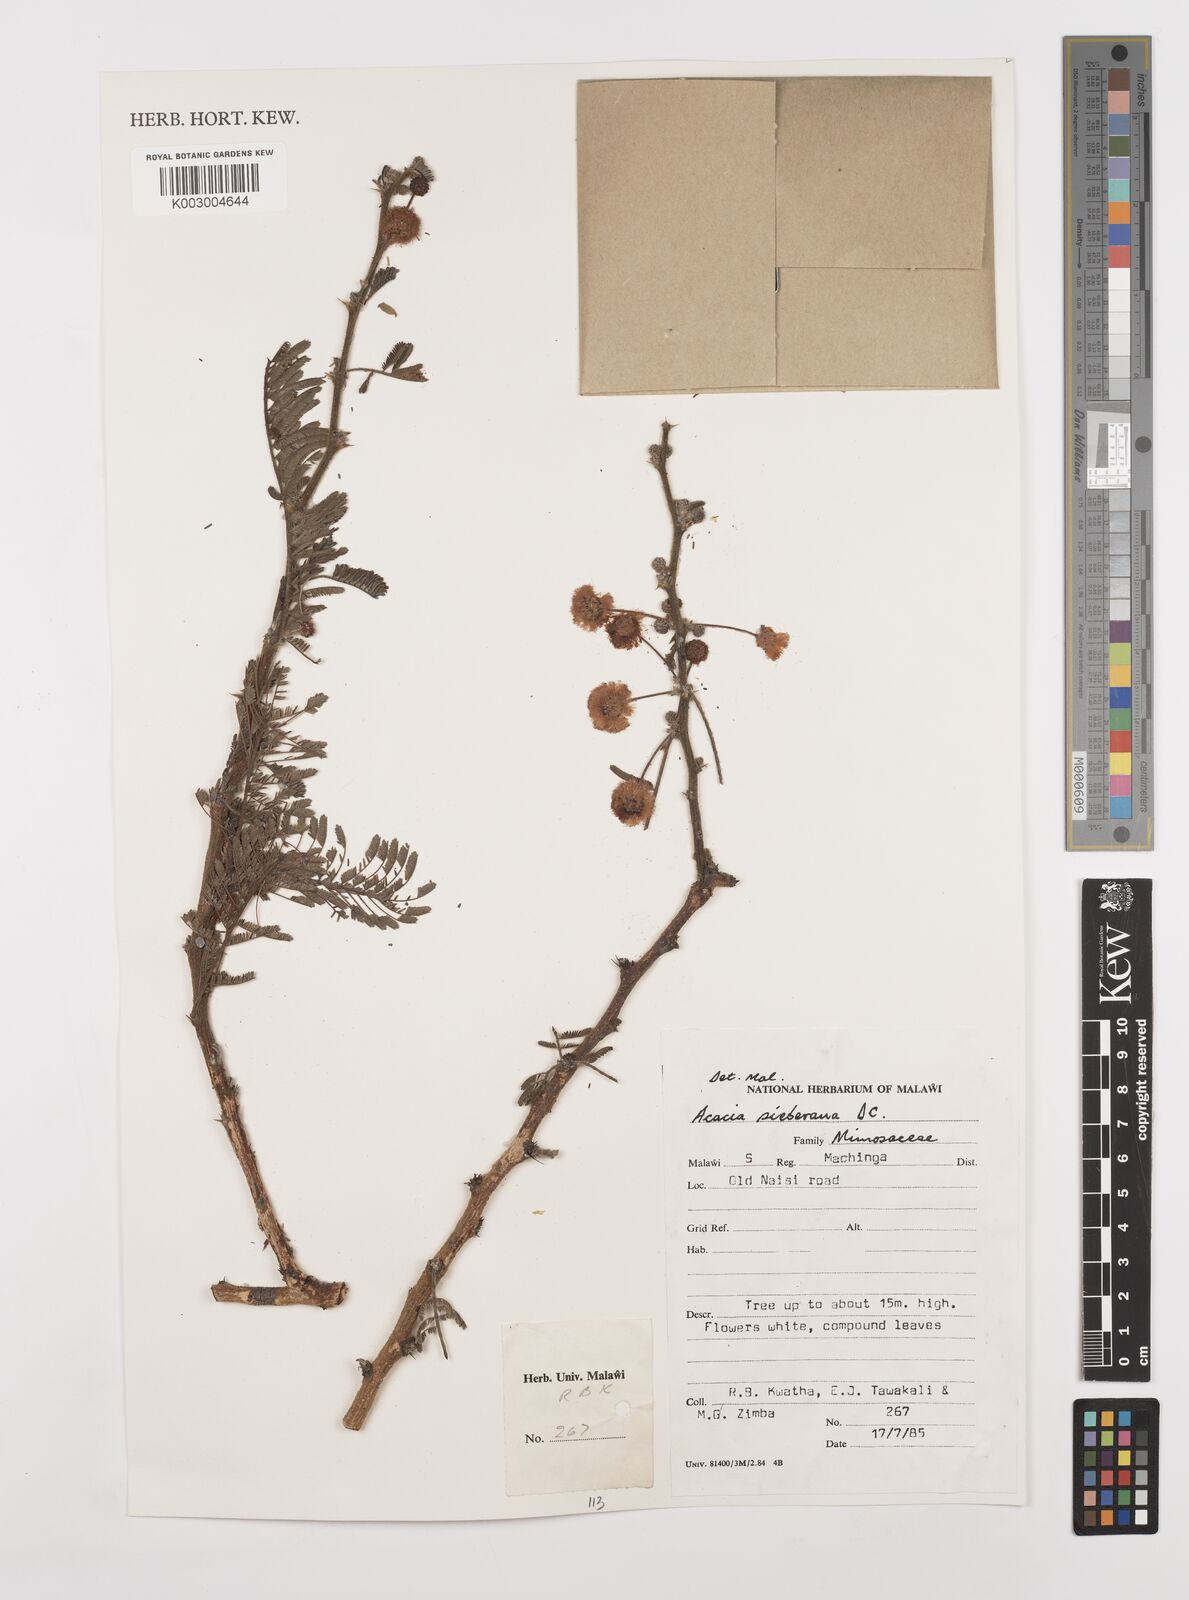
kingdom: Plantae
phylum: Tracheophyta
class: Magnoliopsida
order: Fabales
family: Fabaceae
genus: Vachellia
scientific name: Vachellia sieberiana
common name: Flat-topped thorn
